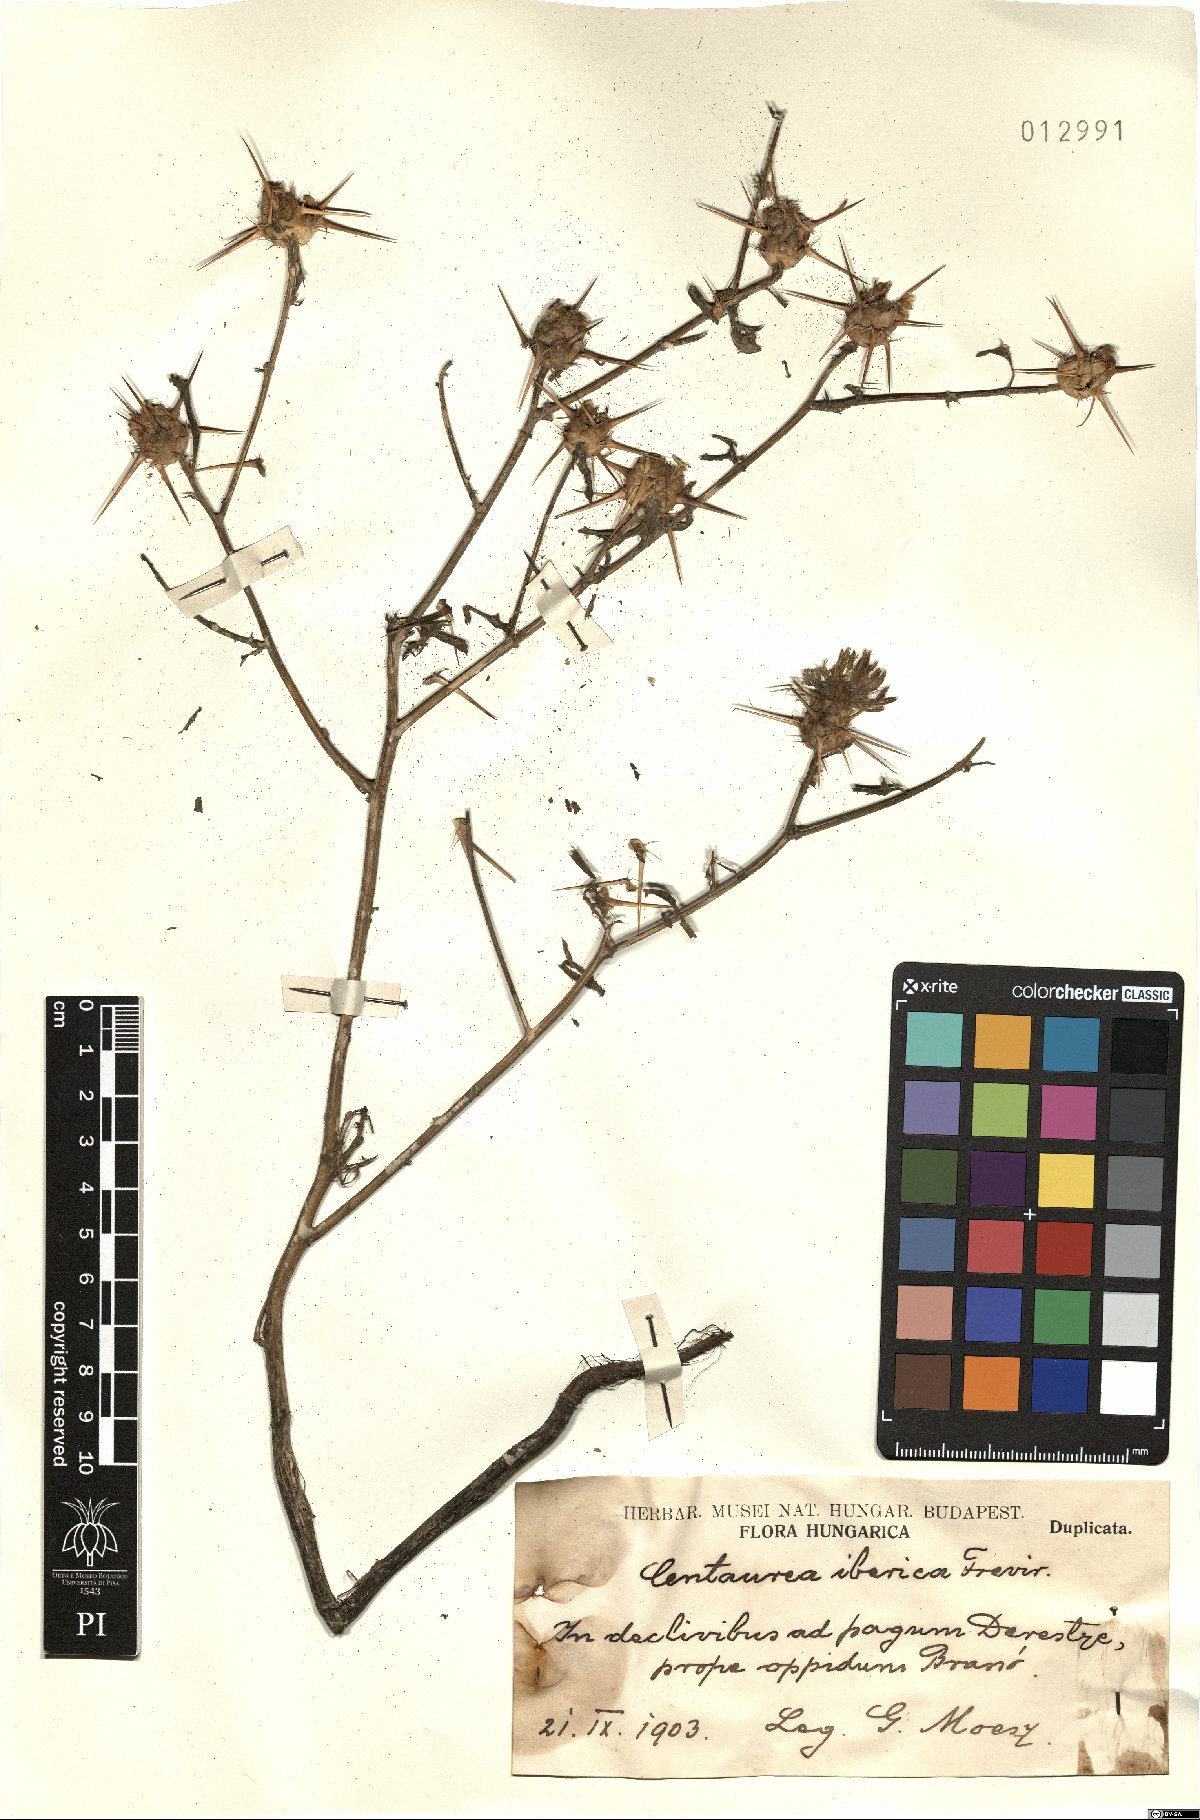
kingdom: Plantae
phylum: Tracheophyta
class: Magnoliopsida
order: Asterales
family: Asteraceae
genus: Centaurea
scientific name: Centaurea iberica
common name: Iberian knapweed
